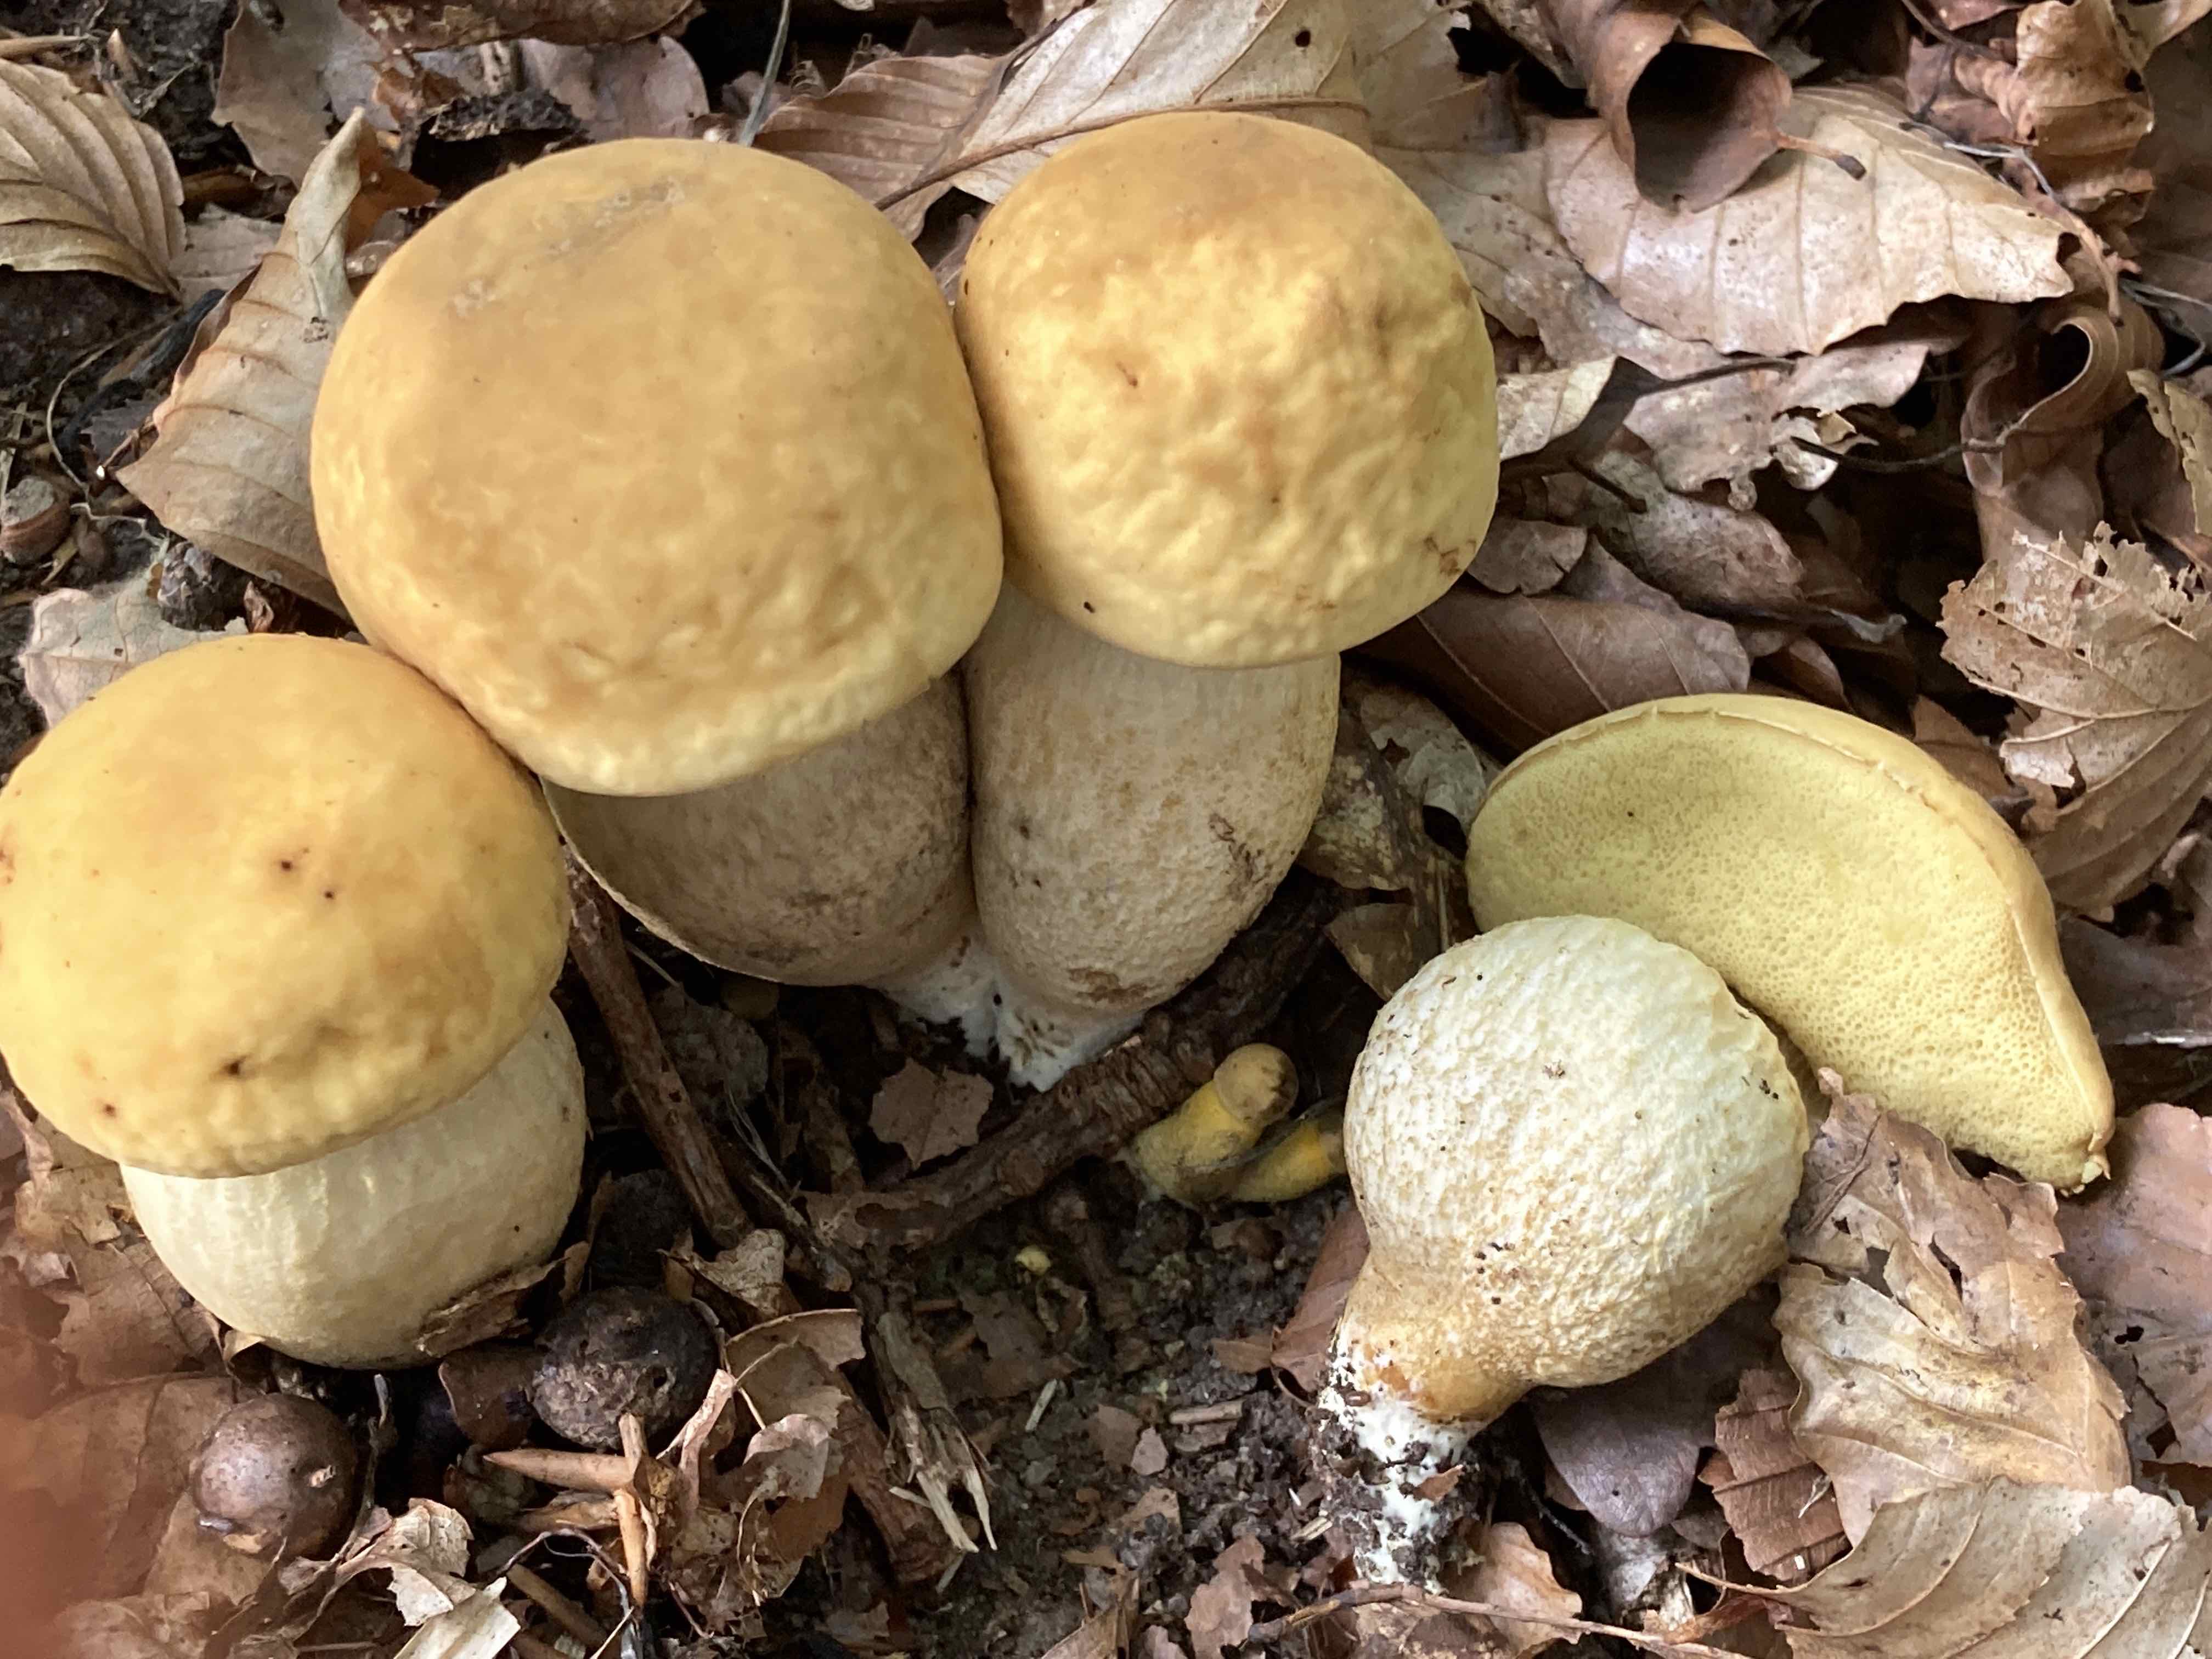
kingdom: Fungi
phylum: Basidiomycota
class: Agaricomycetes
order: Boletales
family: Boletaceae
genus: Leccinellum
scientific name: Leccinellum crocipodium
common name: gul skælrørhat
